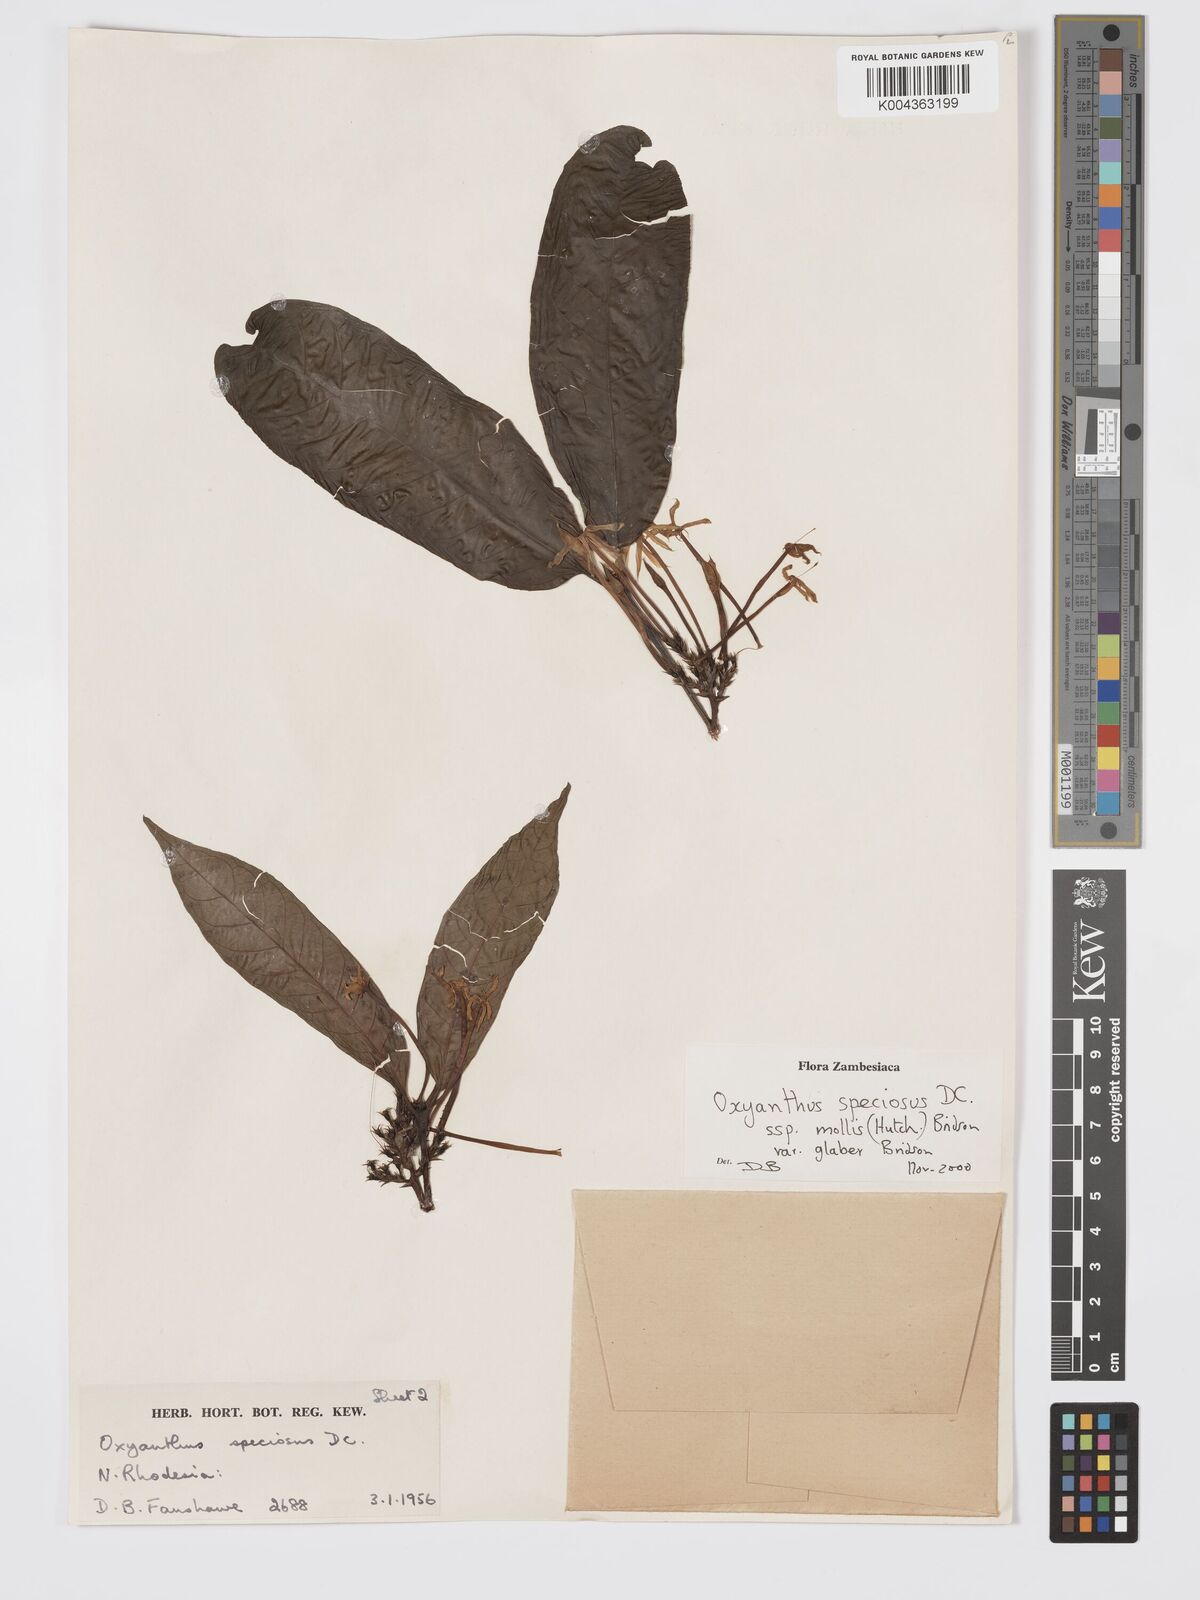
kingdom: Plantae
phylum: Tracheophyta
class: Magnoliopsida
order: Gentianales
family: Rubiaceae
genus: Oxyanthus
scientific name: Oxyanthus speciosus
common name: Whipstick loquat
